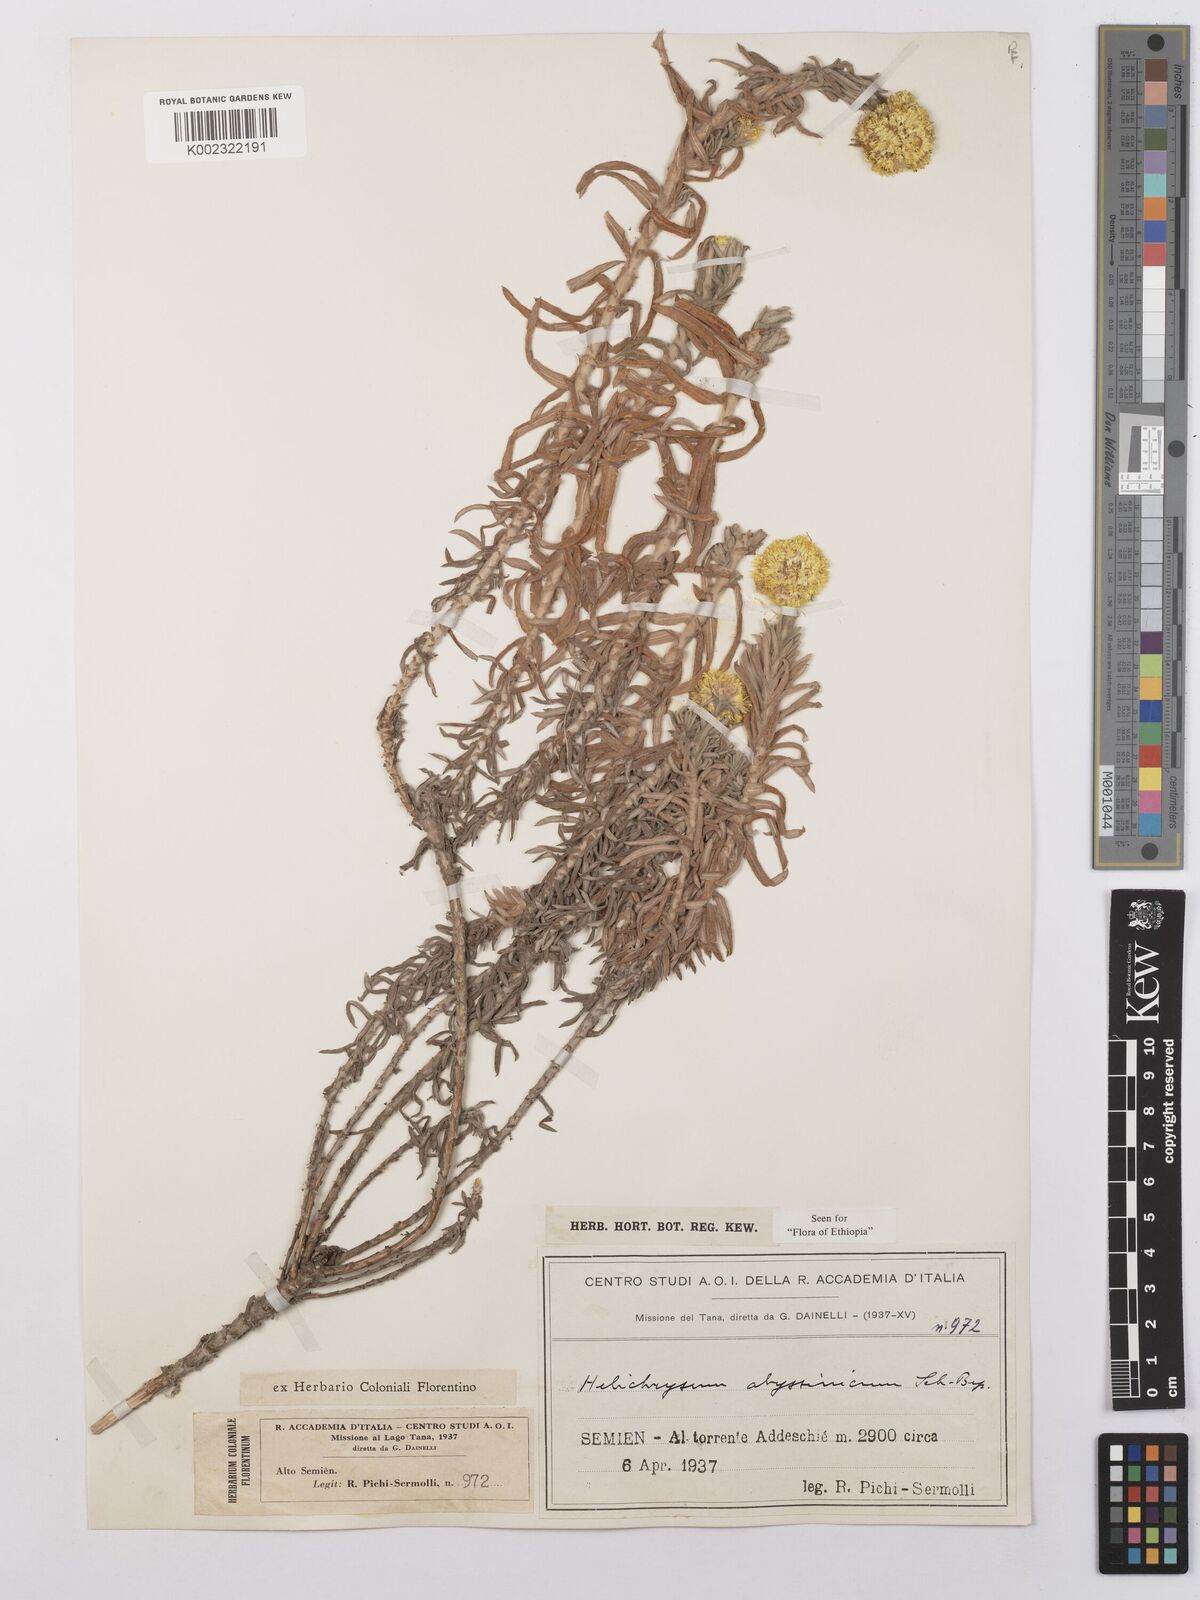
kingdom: Plantae
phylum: Tracheophyta
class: Magnoliopsida
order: Asterales
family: Asteraceae
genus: Helichrysum
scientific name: Helichrysum splendidum
